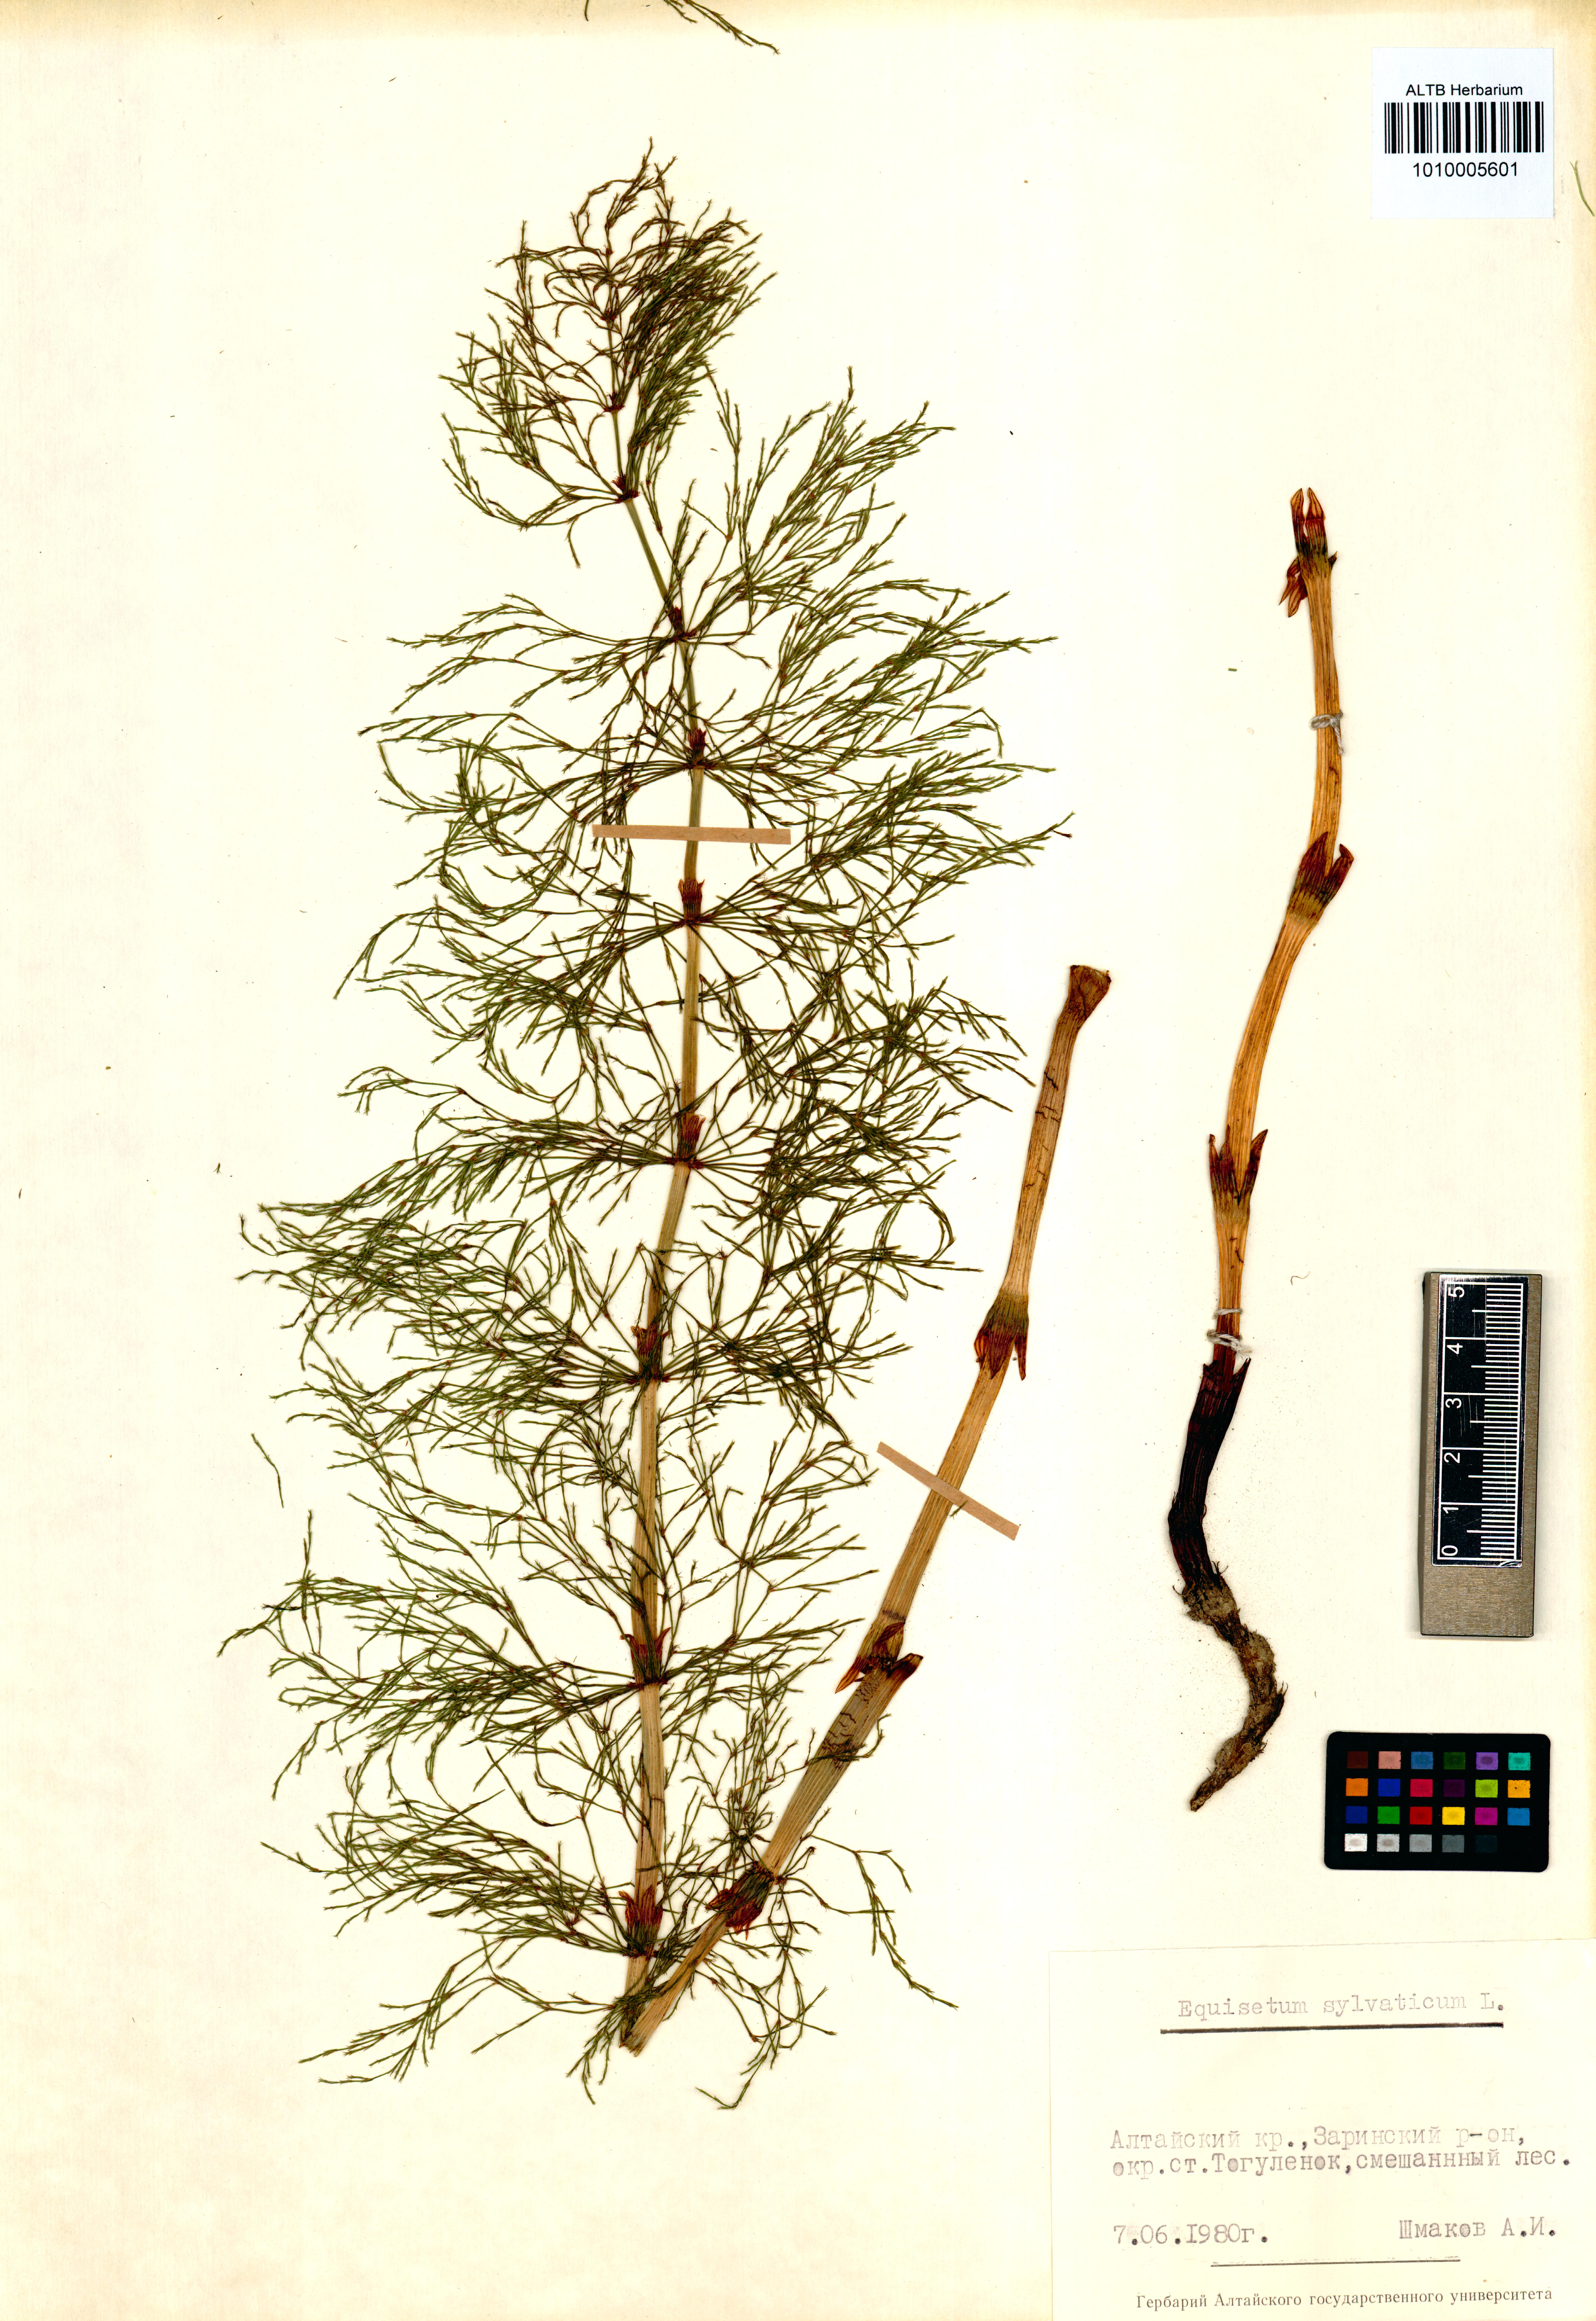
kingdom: Plantae
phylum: Tracheophyta
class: Polypodiopsida
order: Equisetales
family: Equisetaceae
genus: Equisetum
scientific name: Equisetum sylvaticum
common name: Wood horsetail
